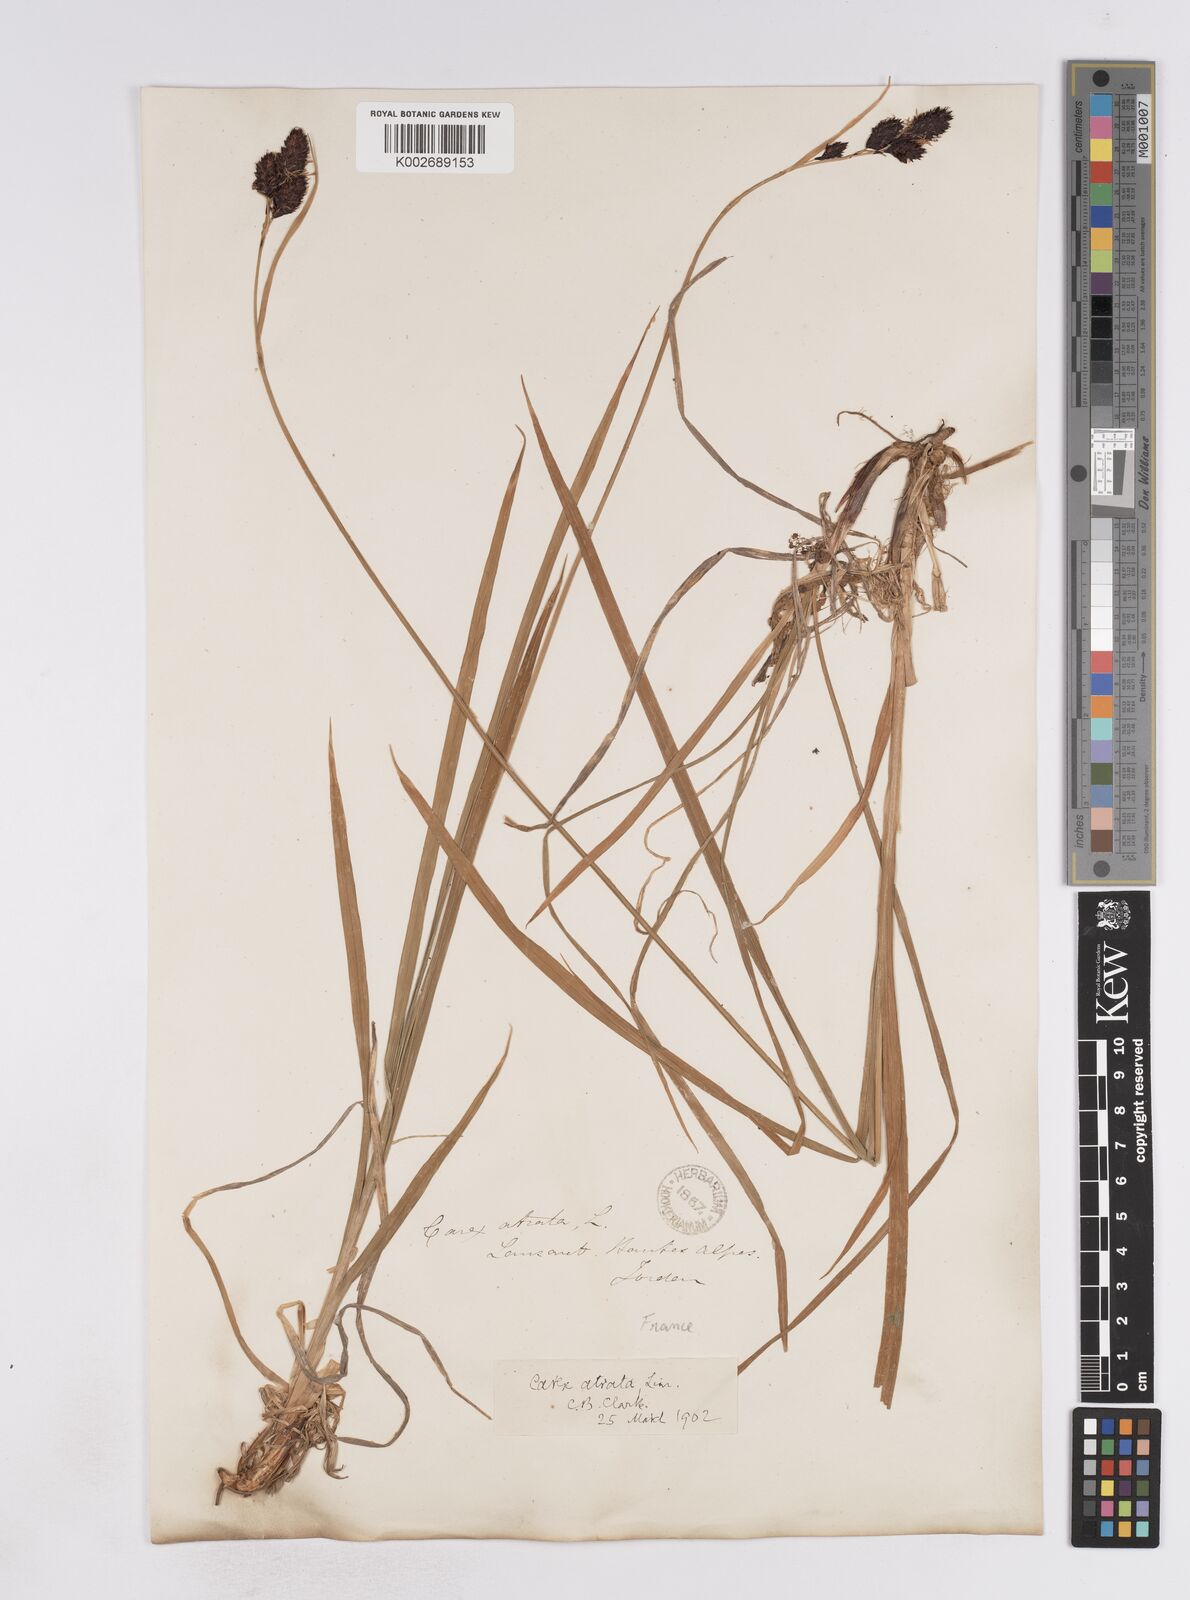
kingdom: Plantae
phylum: Tracheophyta
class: Liliopsida
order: Poales
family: Cyperaceae
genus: Carex
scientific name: Carex aterrima
